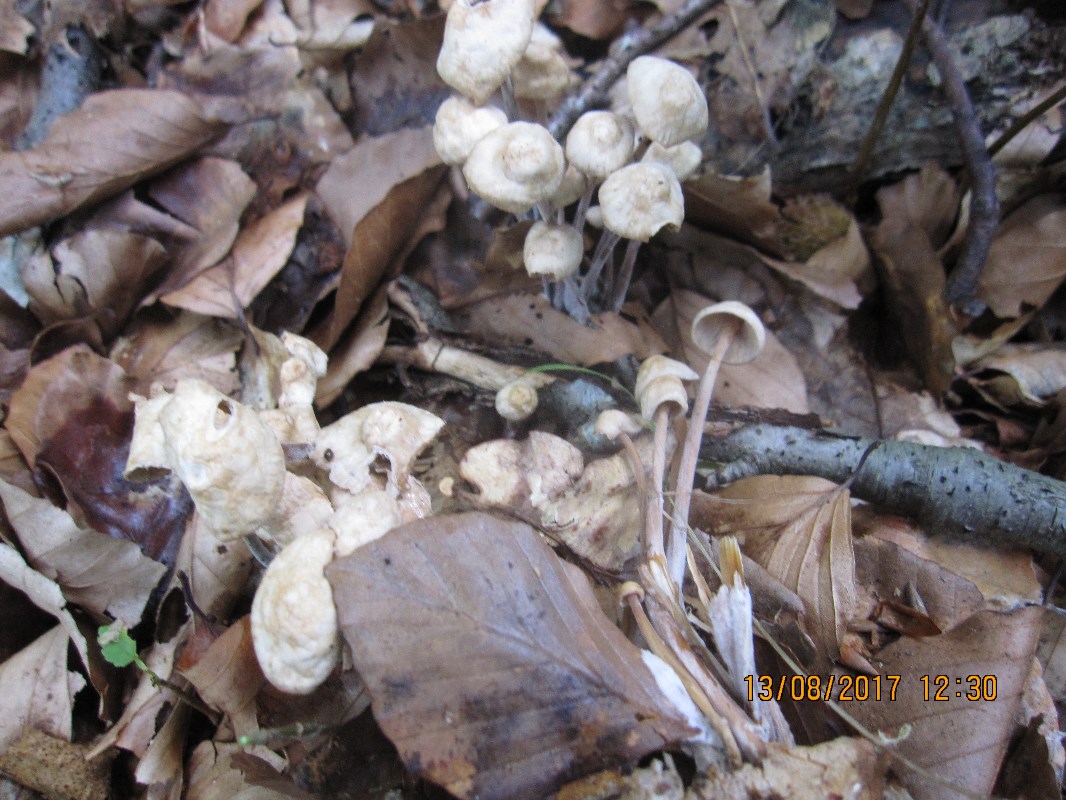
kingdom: Fungi
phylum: Basidiomycota
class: Agaricomycetes
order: Agaricales
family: Omphalotaceae
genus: Collybiopsis
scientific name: Collybiopsis confluens
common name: knippe-fladhat
